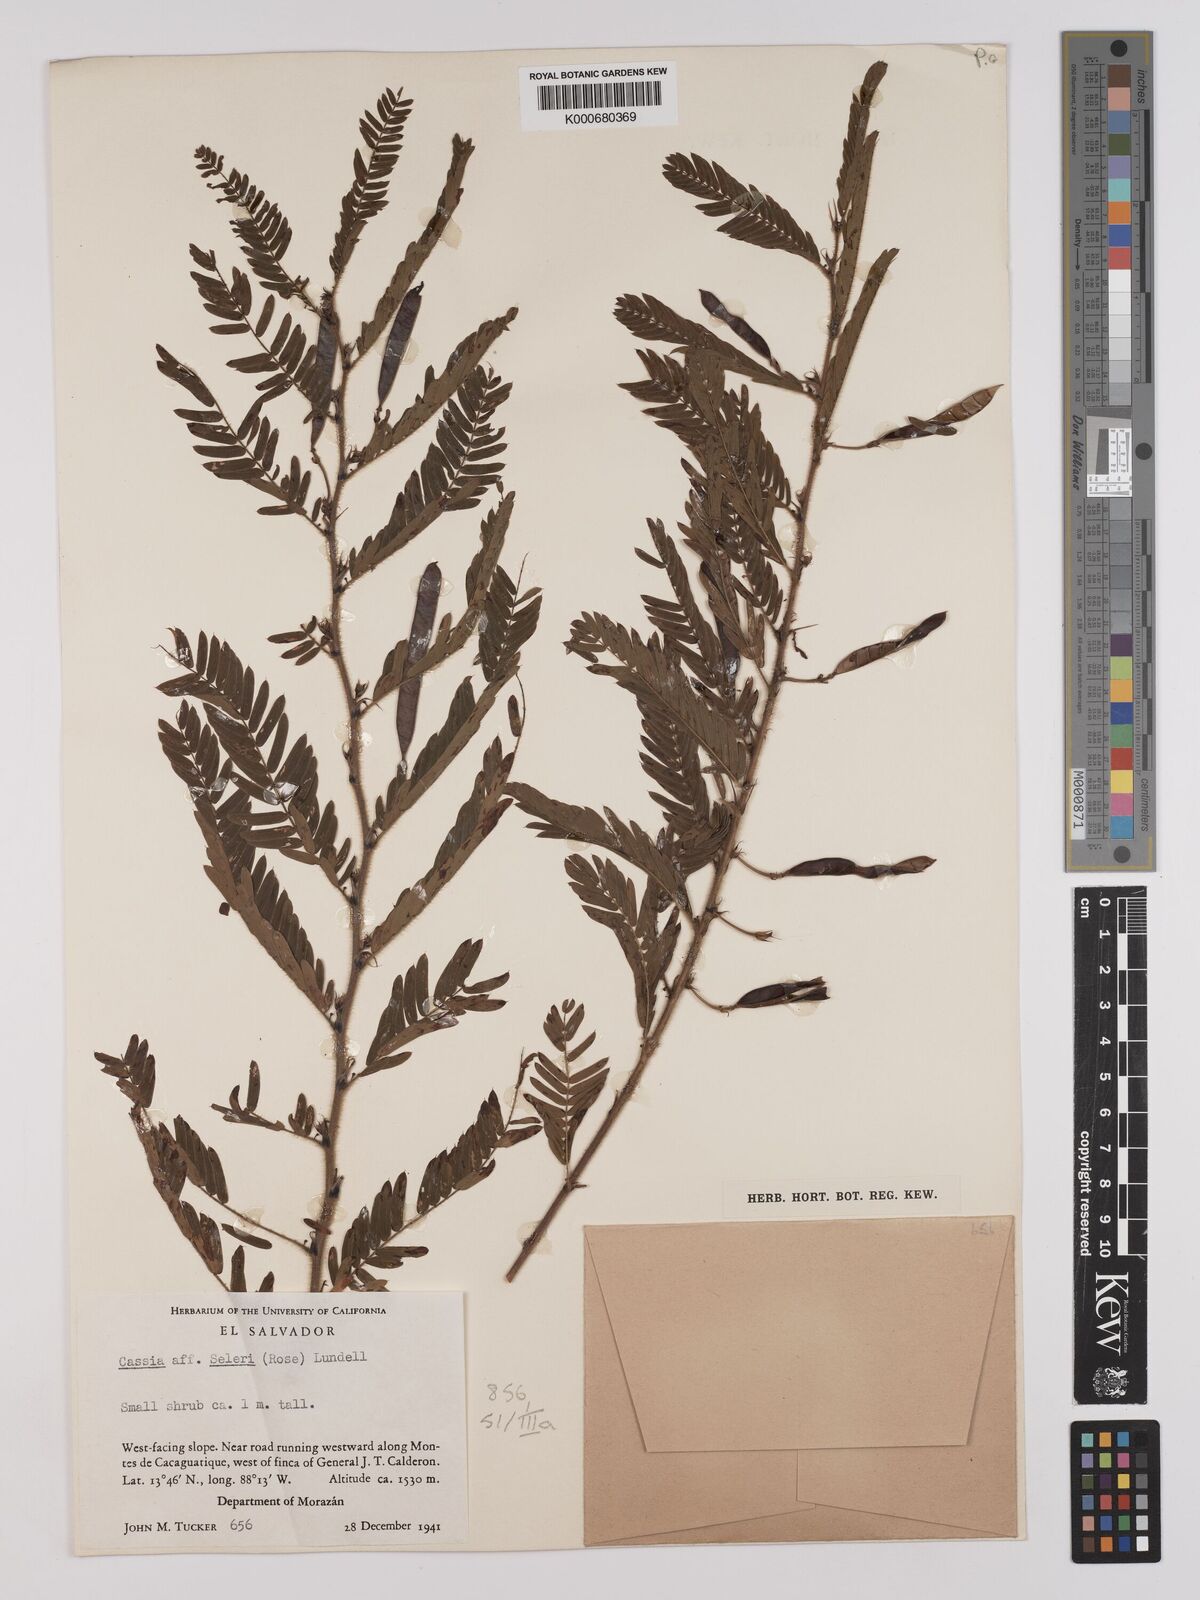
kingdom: Plantae
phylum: Tracheophyta
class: Magnoliopsida
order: Fabales
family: Fabaceae
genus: Chamaecrista
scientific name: Chamaecrista nictitans
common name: Sensitive cassia
